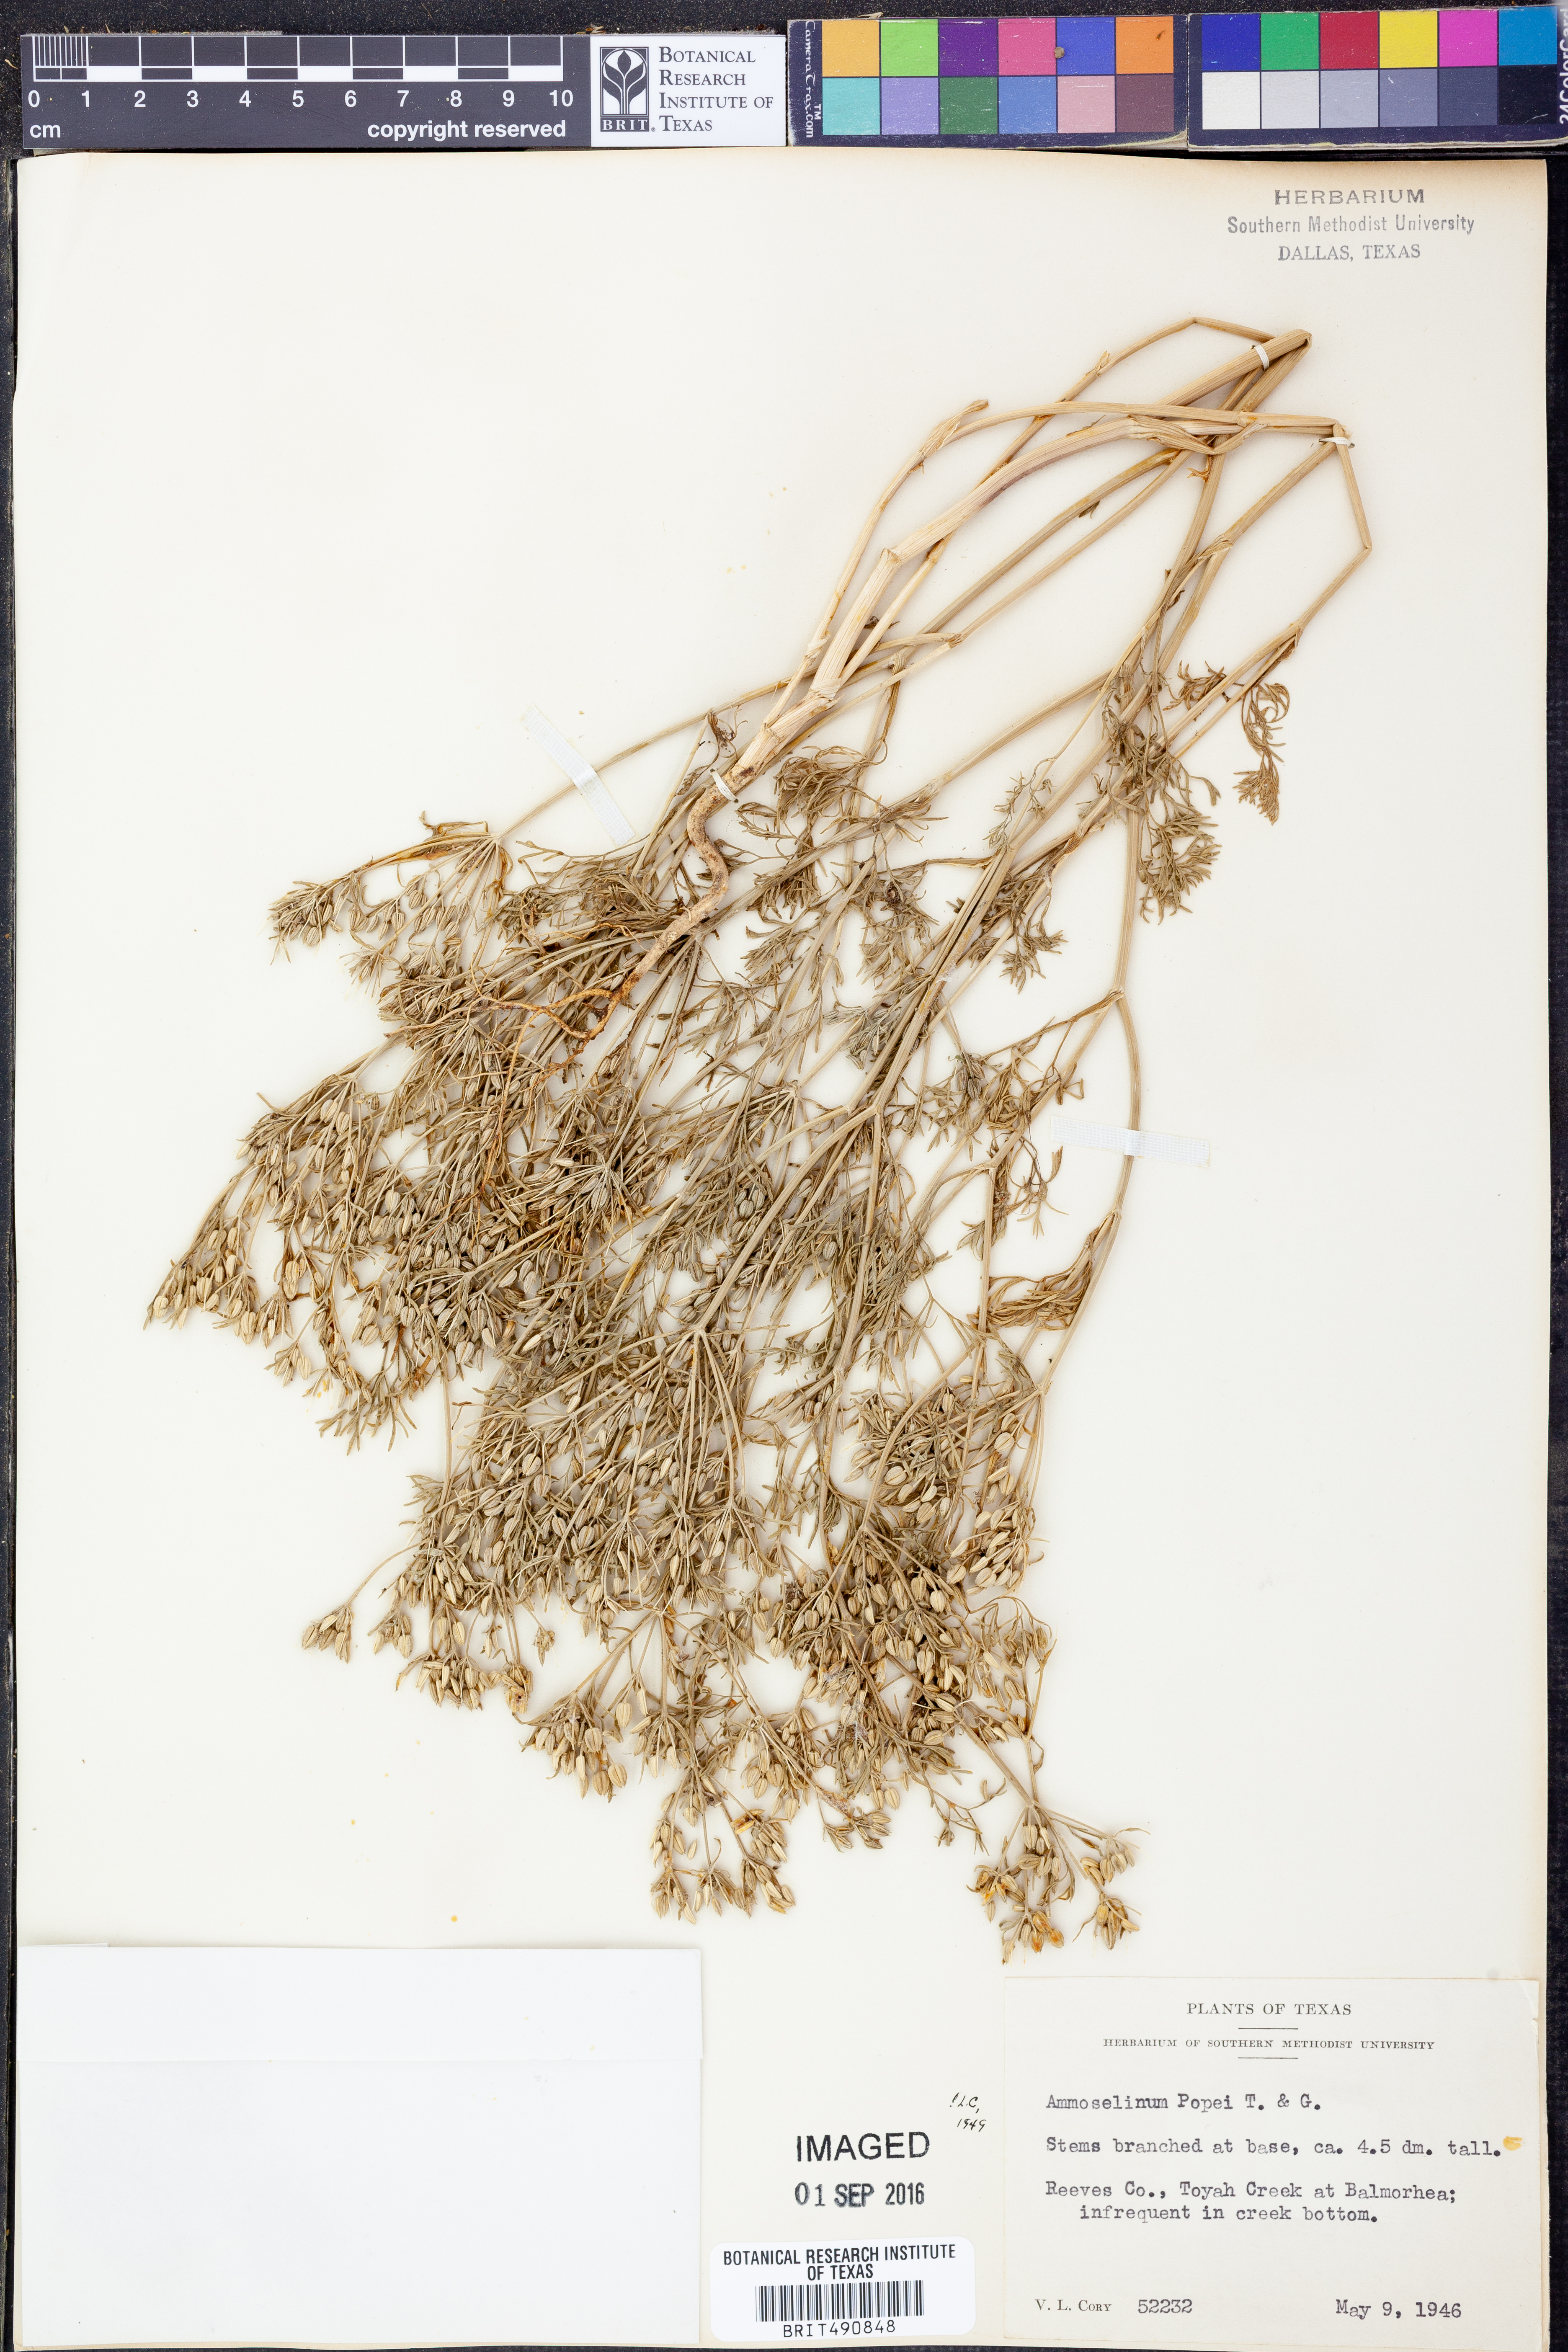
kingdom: Plantae
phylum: Tracheophyta
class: Magnoliopsida
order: Apiales
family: Apiaceae
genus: Ammoselinum
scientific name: Ammoselinum popei
